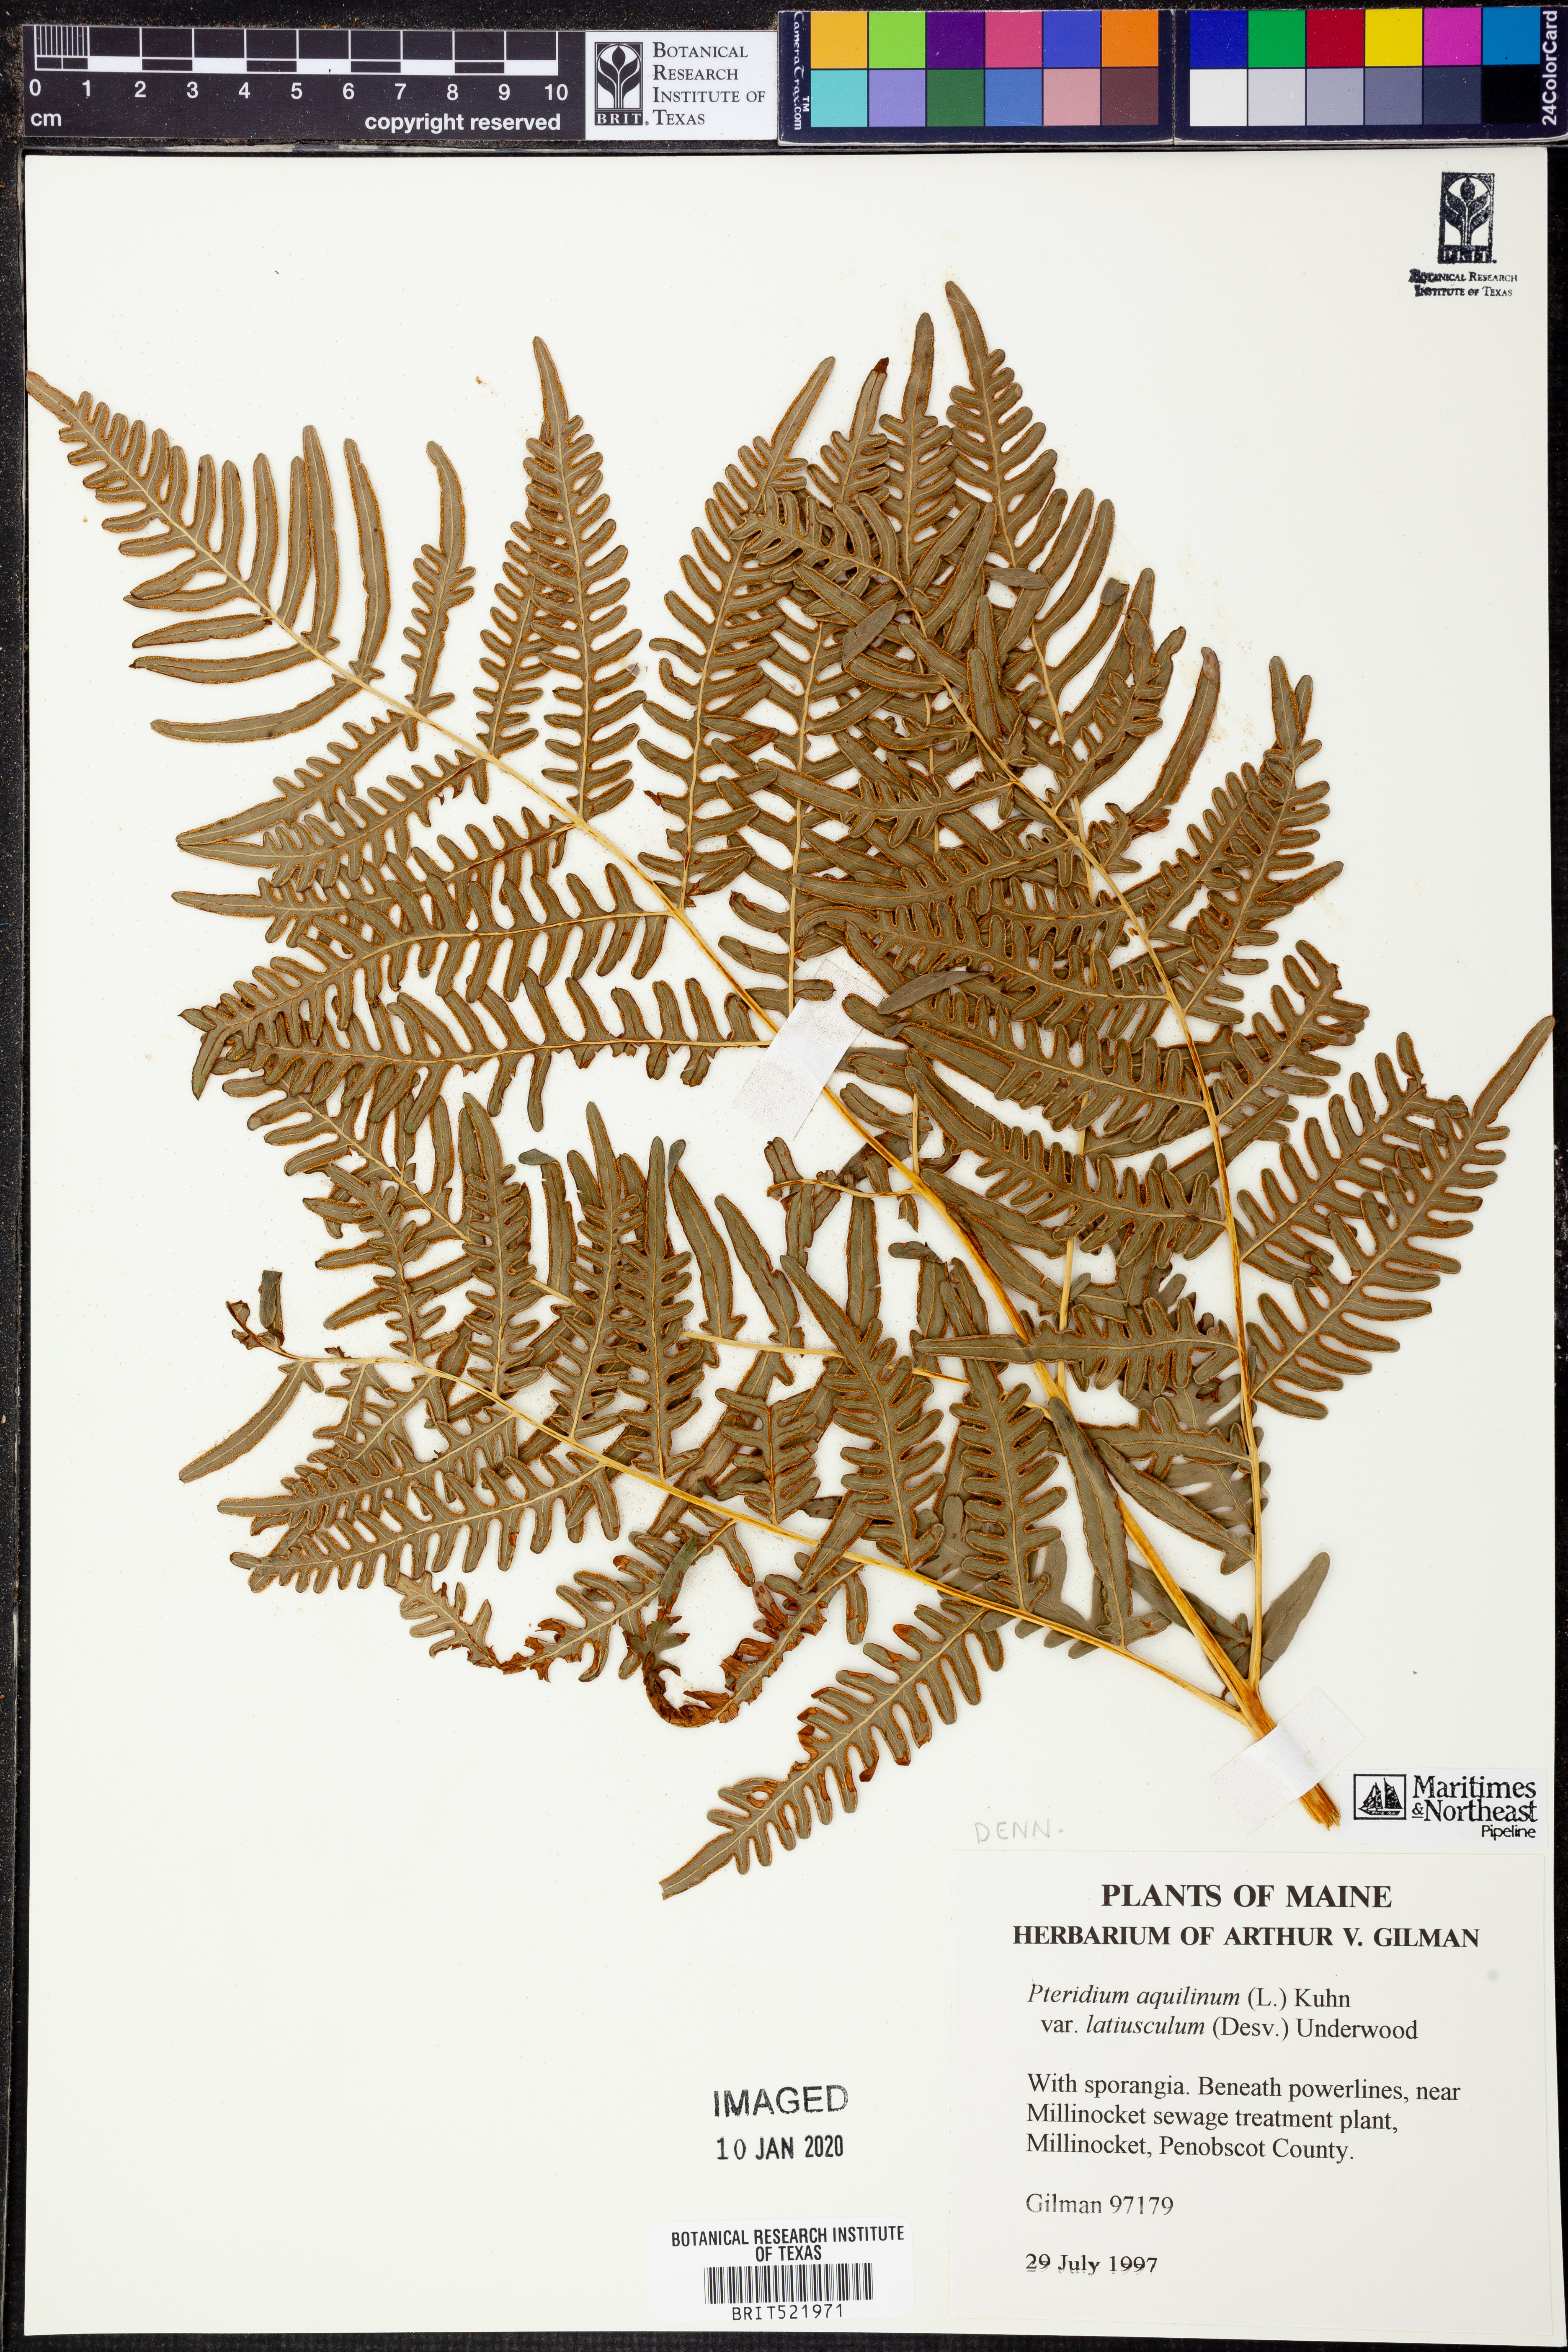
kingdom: Plantae
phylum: Tracheophyta
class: Polypodiopsida
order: Polypodiales
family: Dennstaedtiaceae
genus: Pteridium
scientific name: Pteridium aquilinum
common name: Bracken
